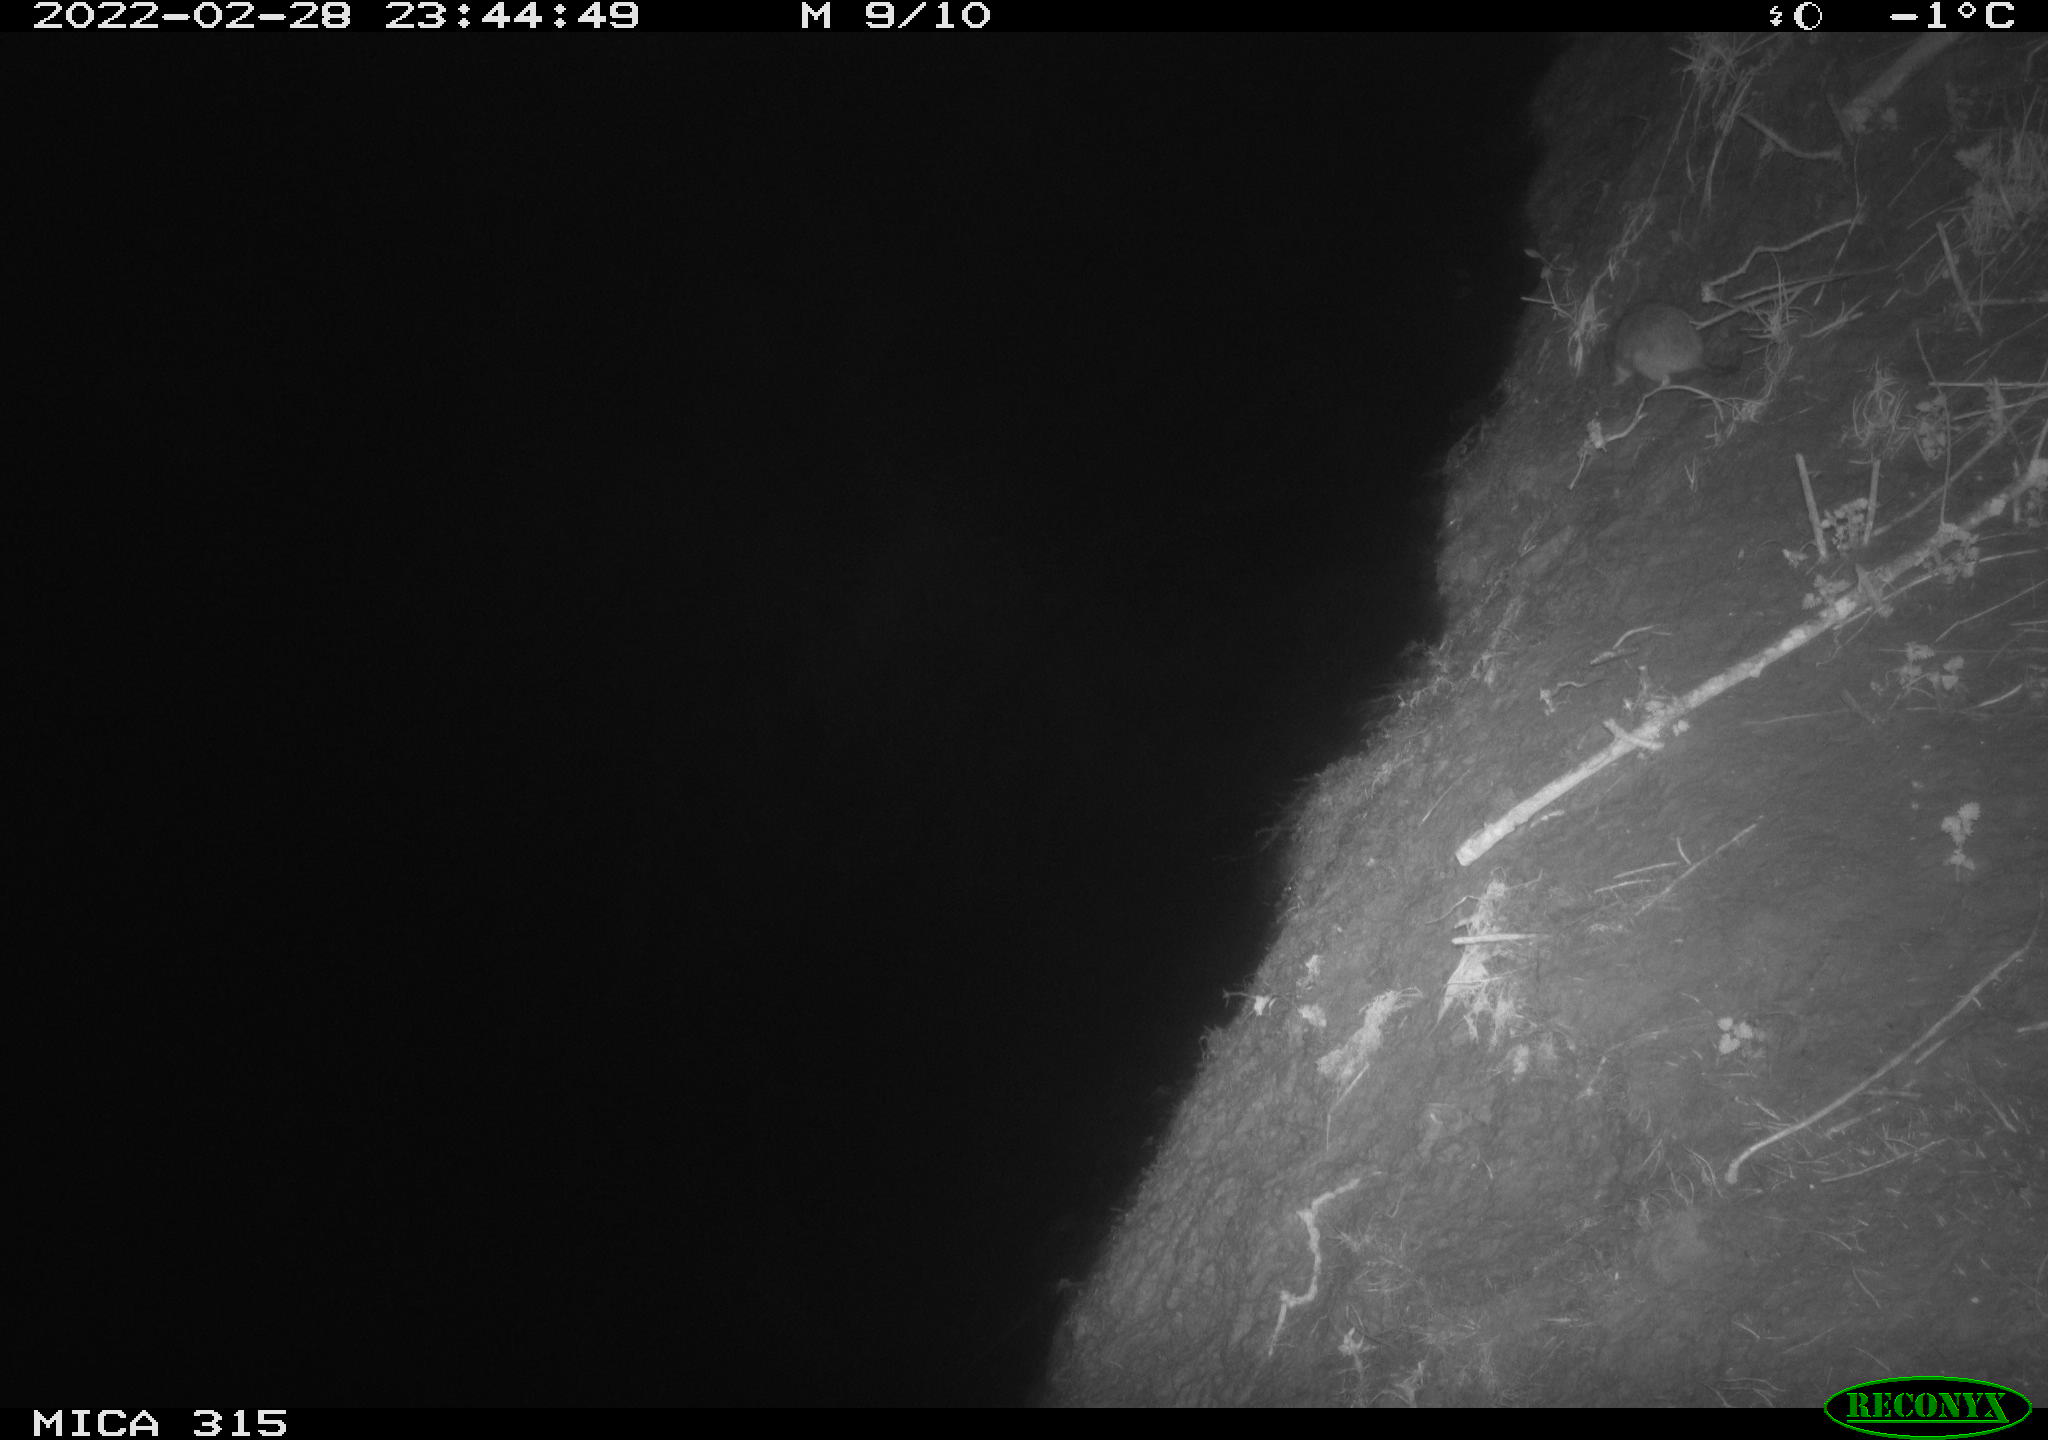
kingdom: Animalia
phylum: Chordata
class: Mammalia
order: Rodentia
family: Muridae
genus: Rattus
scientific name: Rattus norvegicus
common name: Brown rat
